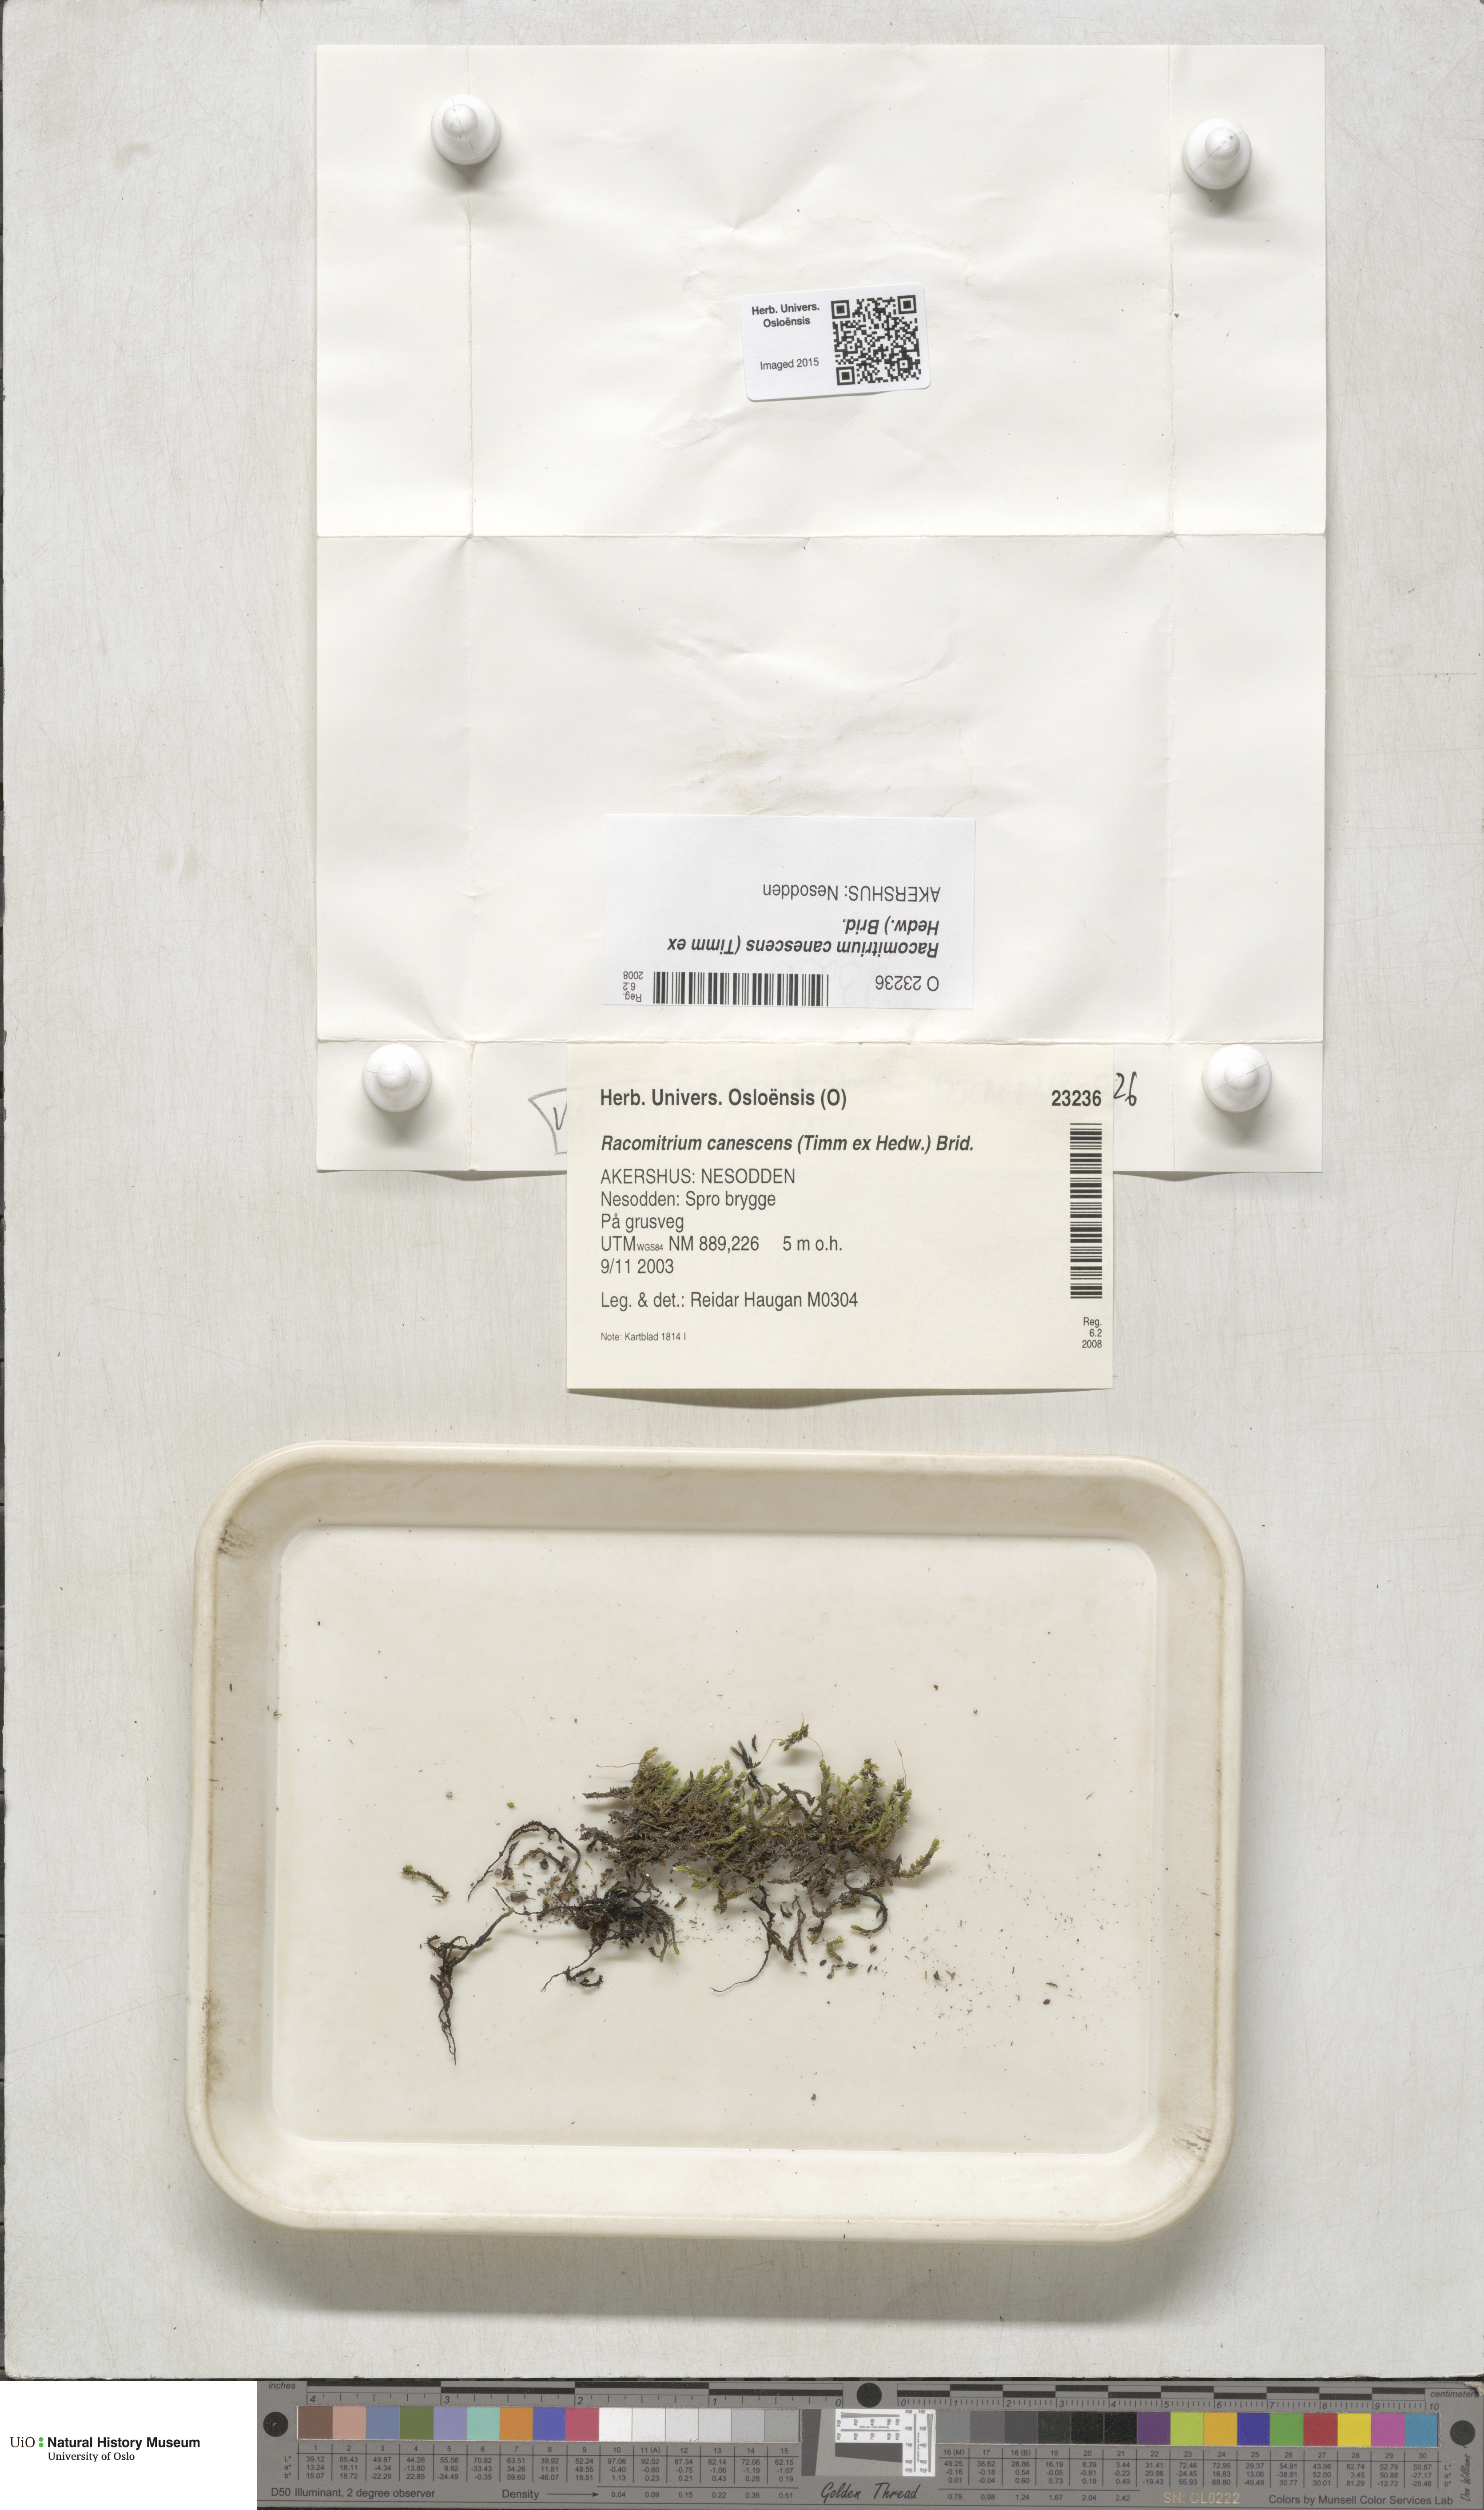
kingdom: Plantae
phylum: Bryophyta
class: Bryopsida
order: Grimmiales
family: Grimmiaceae
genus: Niphotrichum
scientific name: Niphotrichum canescens
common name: Hoary fringe-moss
